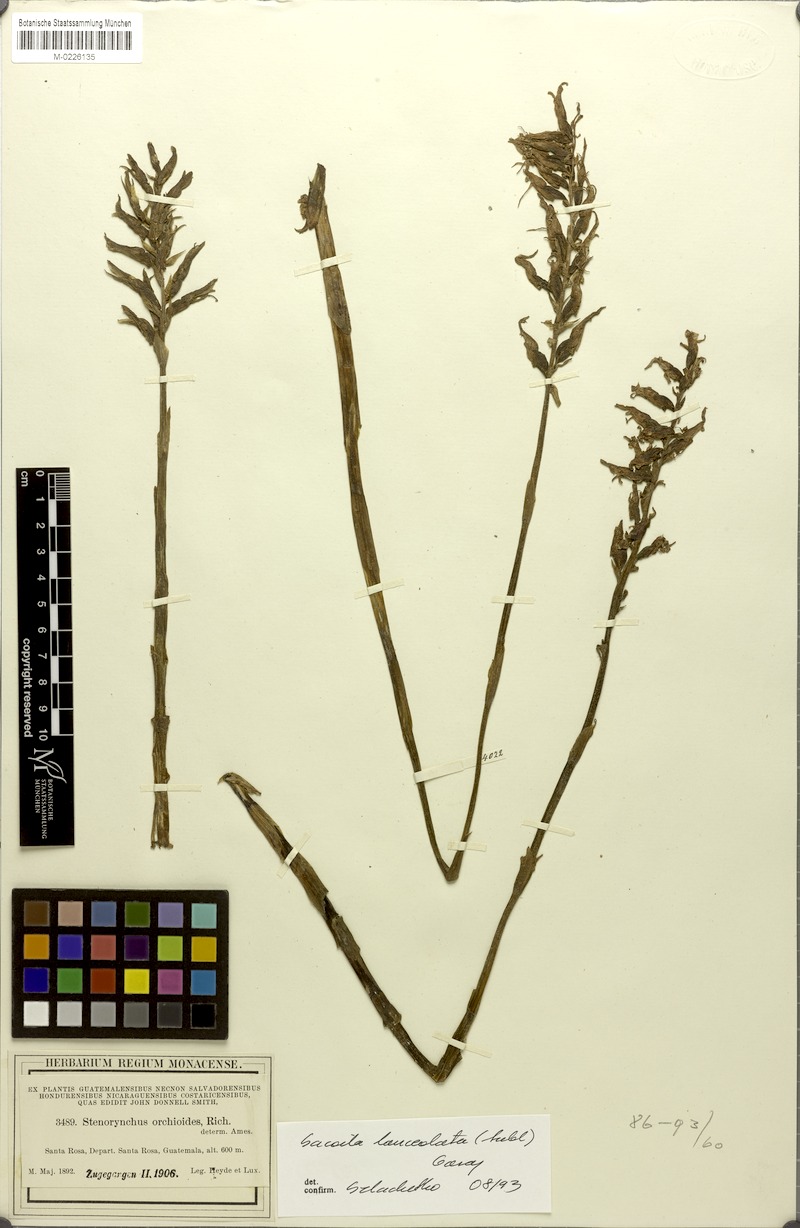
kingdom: Plantae
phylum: Tracheophyta
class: Liliopsida
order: Asparagales
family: Orchidaceae
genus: Sacoila
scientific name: Sacoila lanceolata
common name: Leafless beaked ladiestresses
